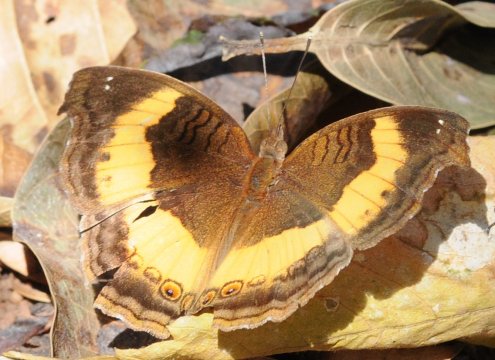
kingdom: Animalia
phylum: Arthropoda
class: Insecta
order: Lepidoptera
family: Nymphalidae
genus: Junonia
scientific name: Junonia terea
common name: Soldier Pansy
